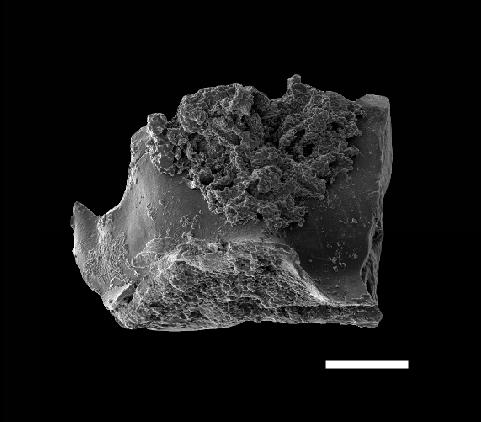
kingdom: Animalia
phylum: Chordata
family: Kockelellidae
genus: Kockelella
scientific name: Kockelella
